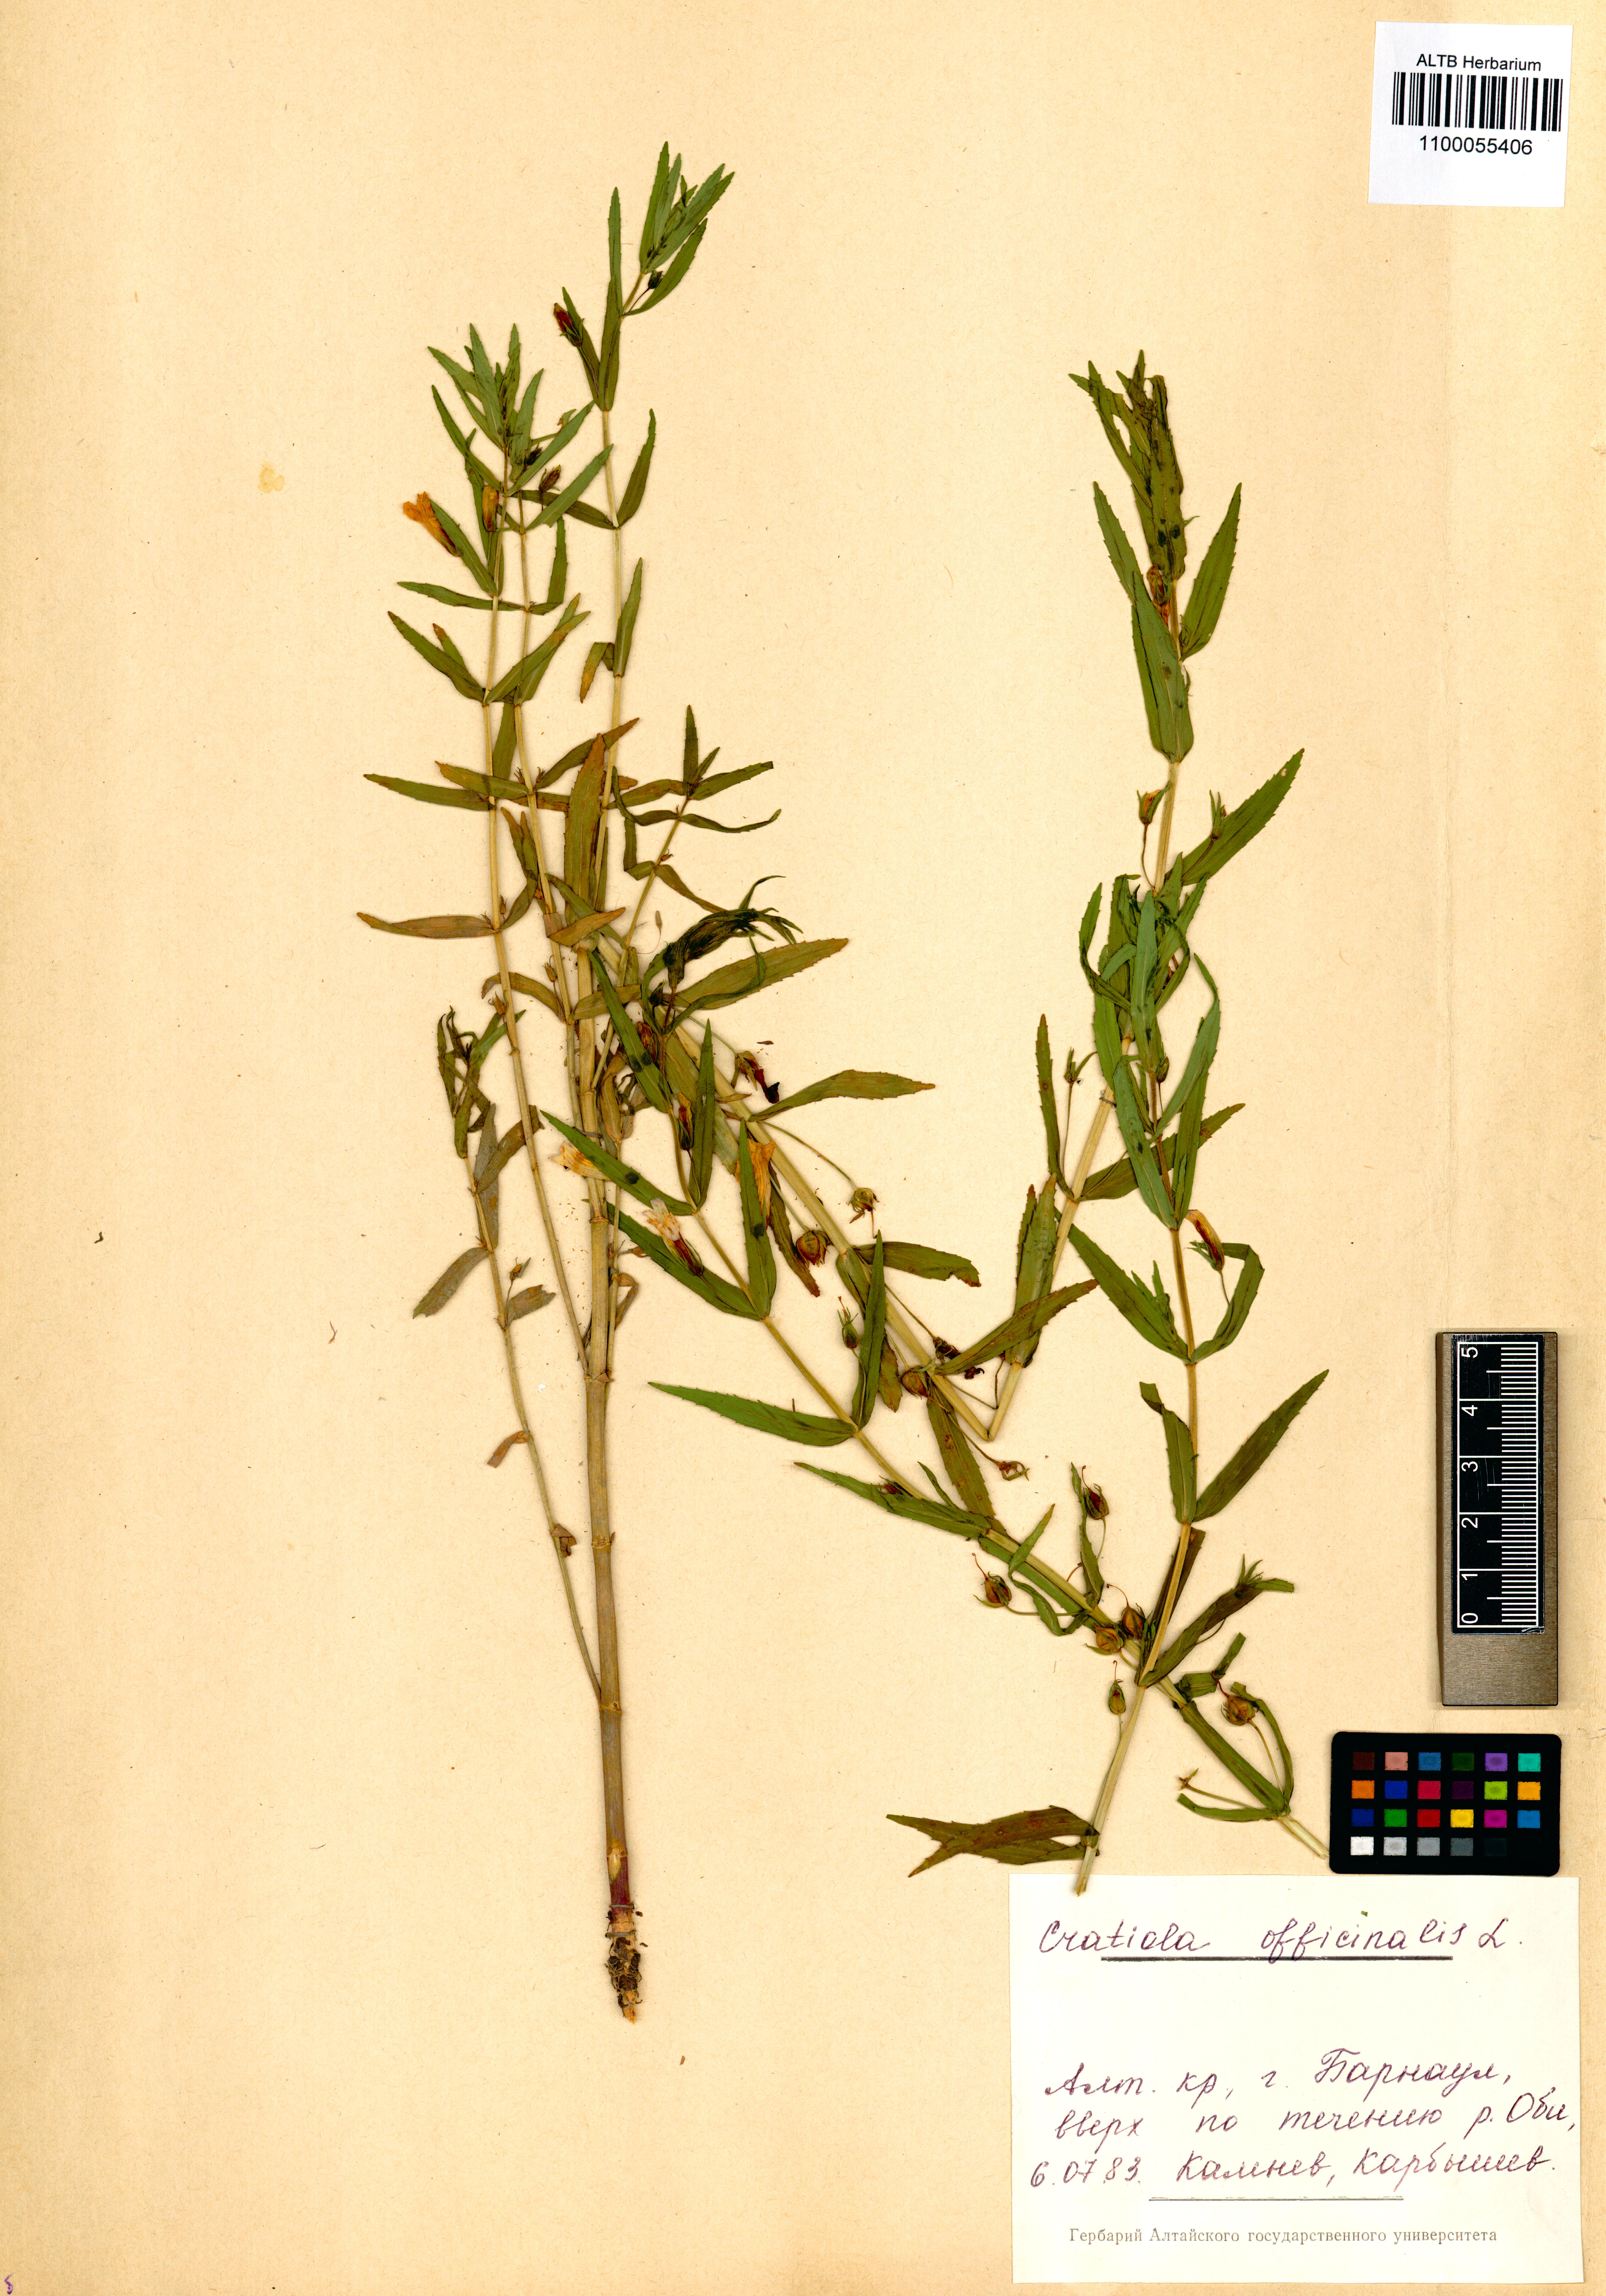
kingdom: Plantae
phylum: Tracheophyta
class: Magnoliopsida
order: Lamiales
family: Plantaginaceae
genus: Gratiola
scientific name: Gratiola officinalis
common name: Gratiola
